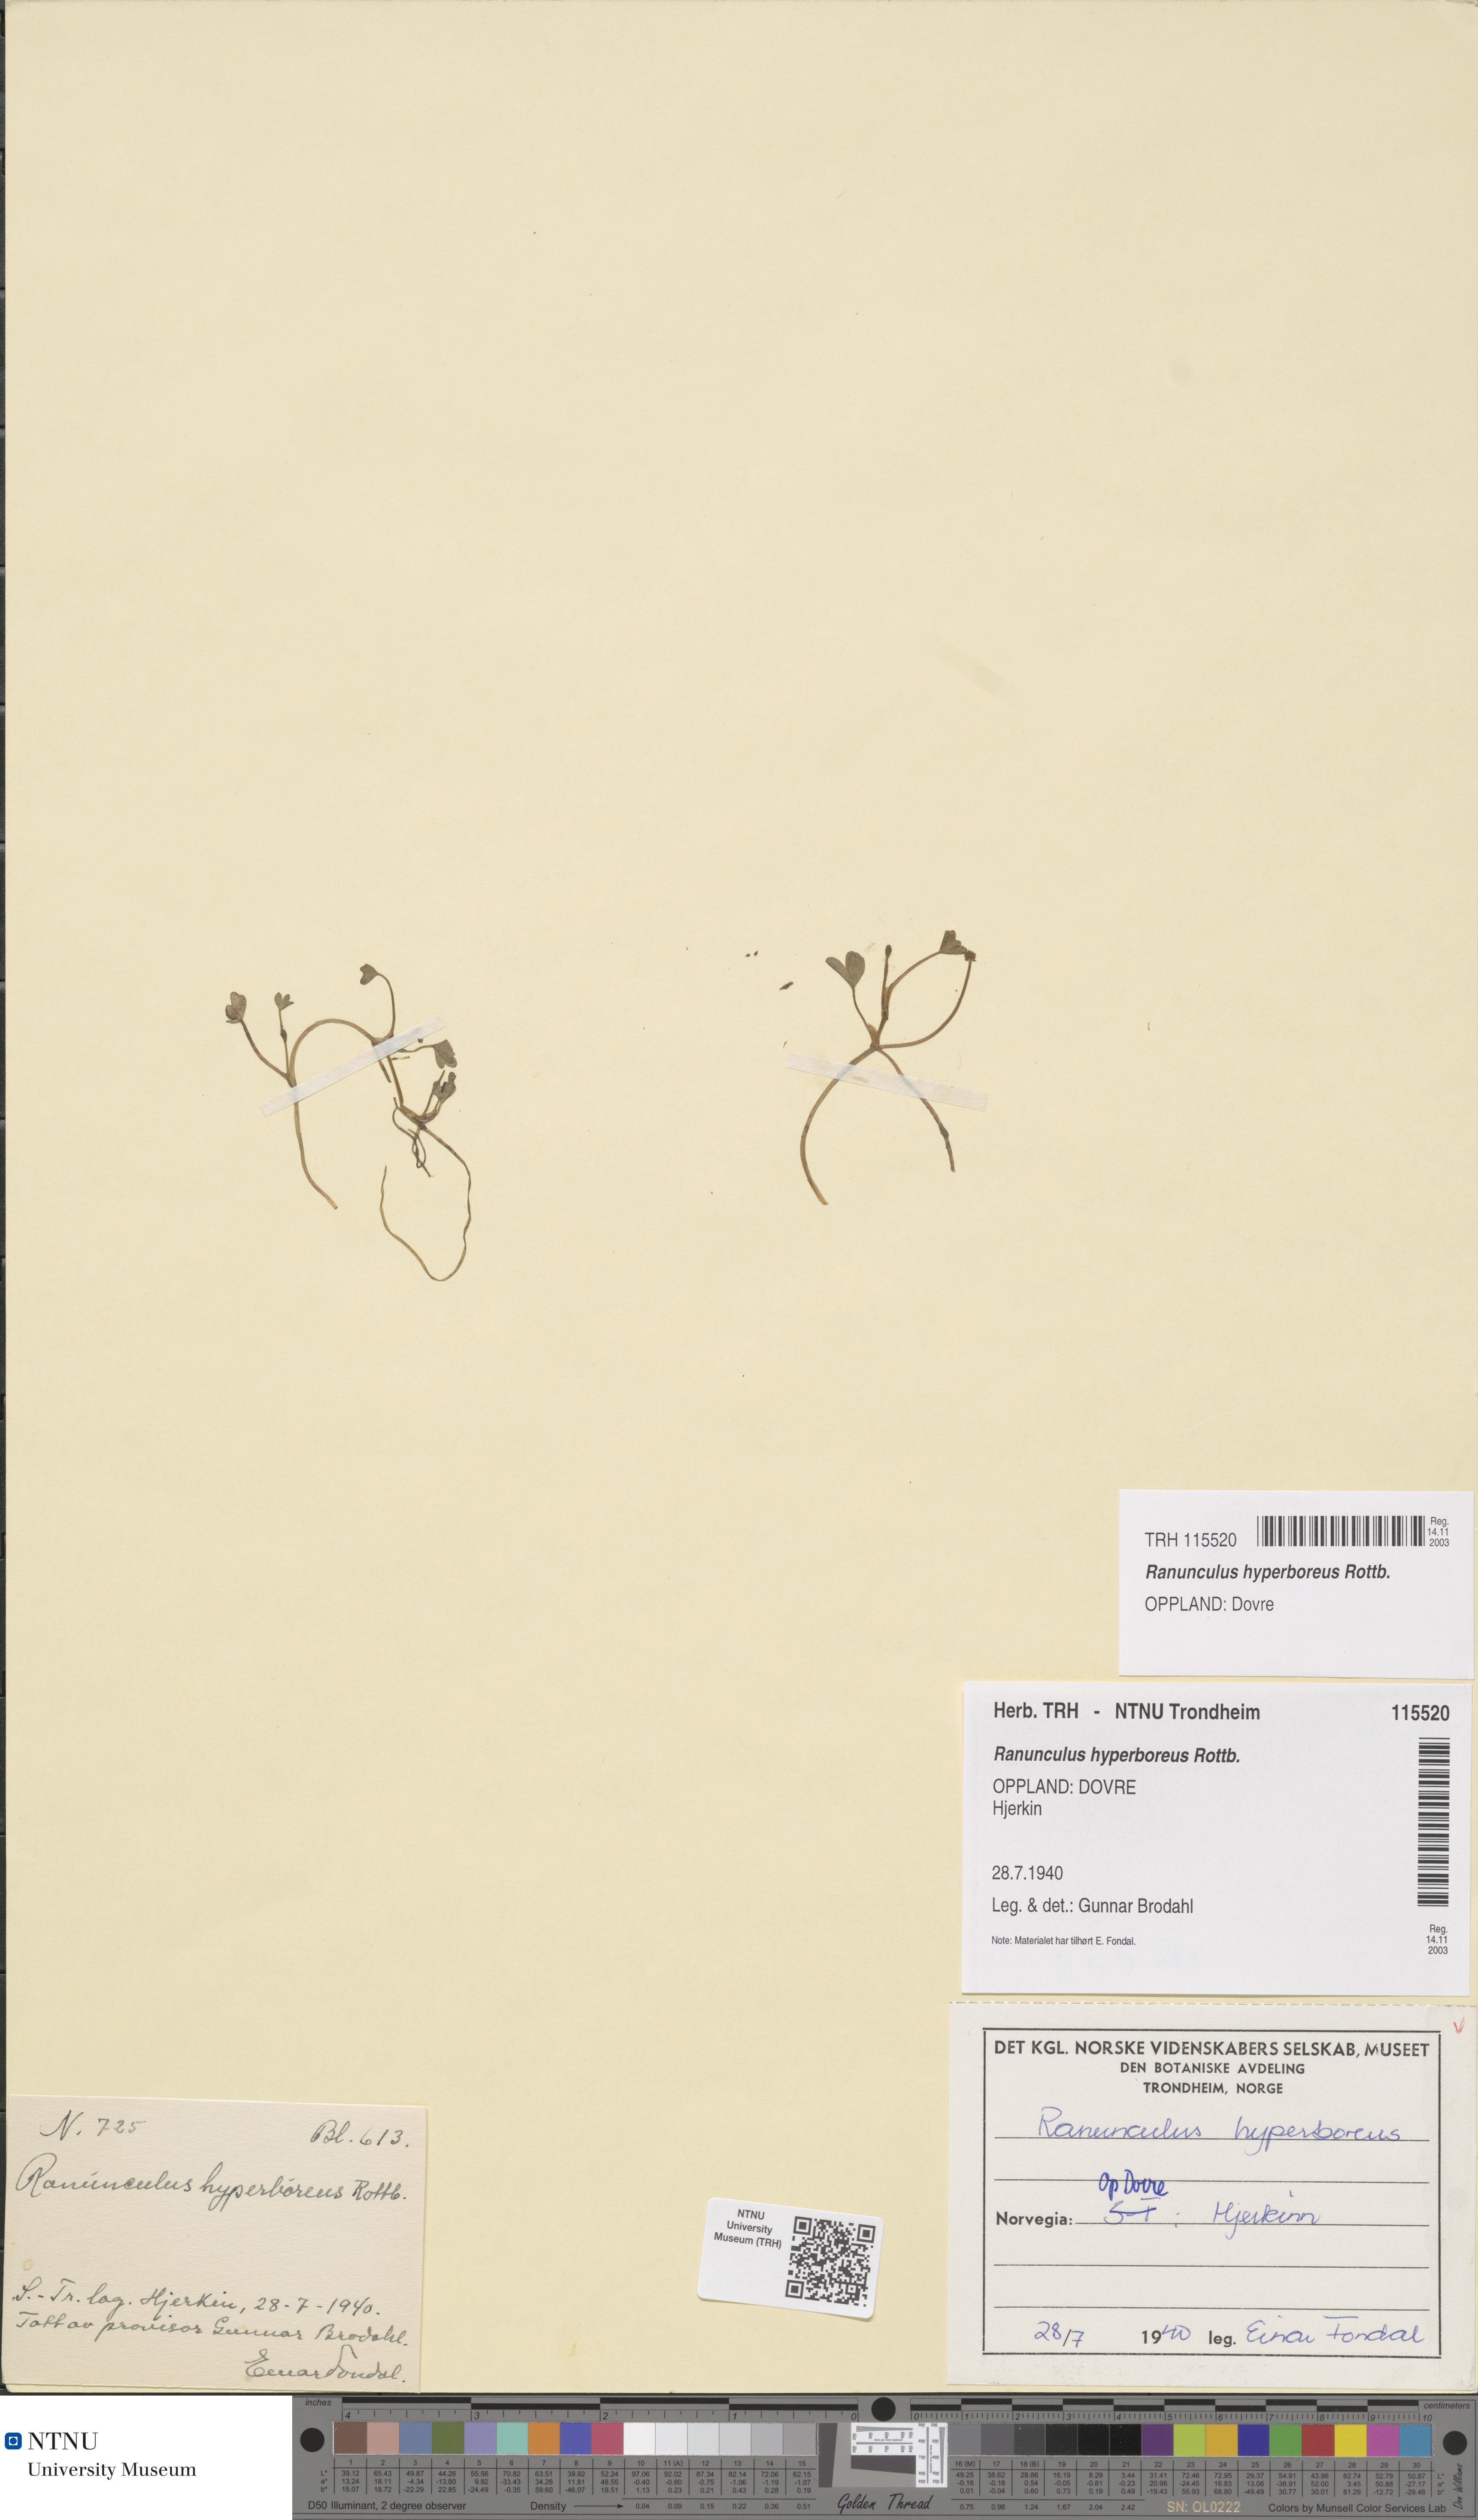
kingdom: Plantae
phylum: Tracheophyta
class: Magnoliopsida
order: Ranunculales
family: Ranunculaceae
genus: Ranunculus
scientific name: Ranunculus hyperboreus
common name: Arctic buttercup
